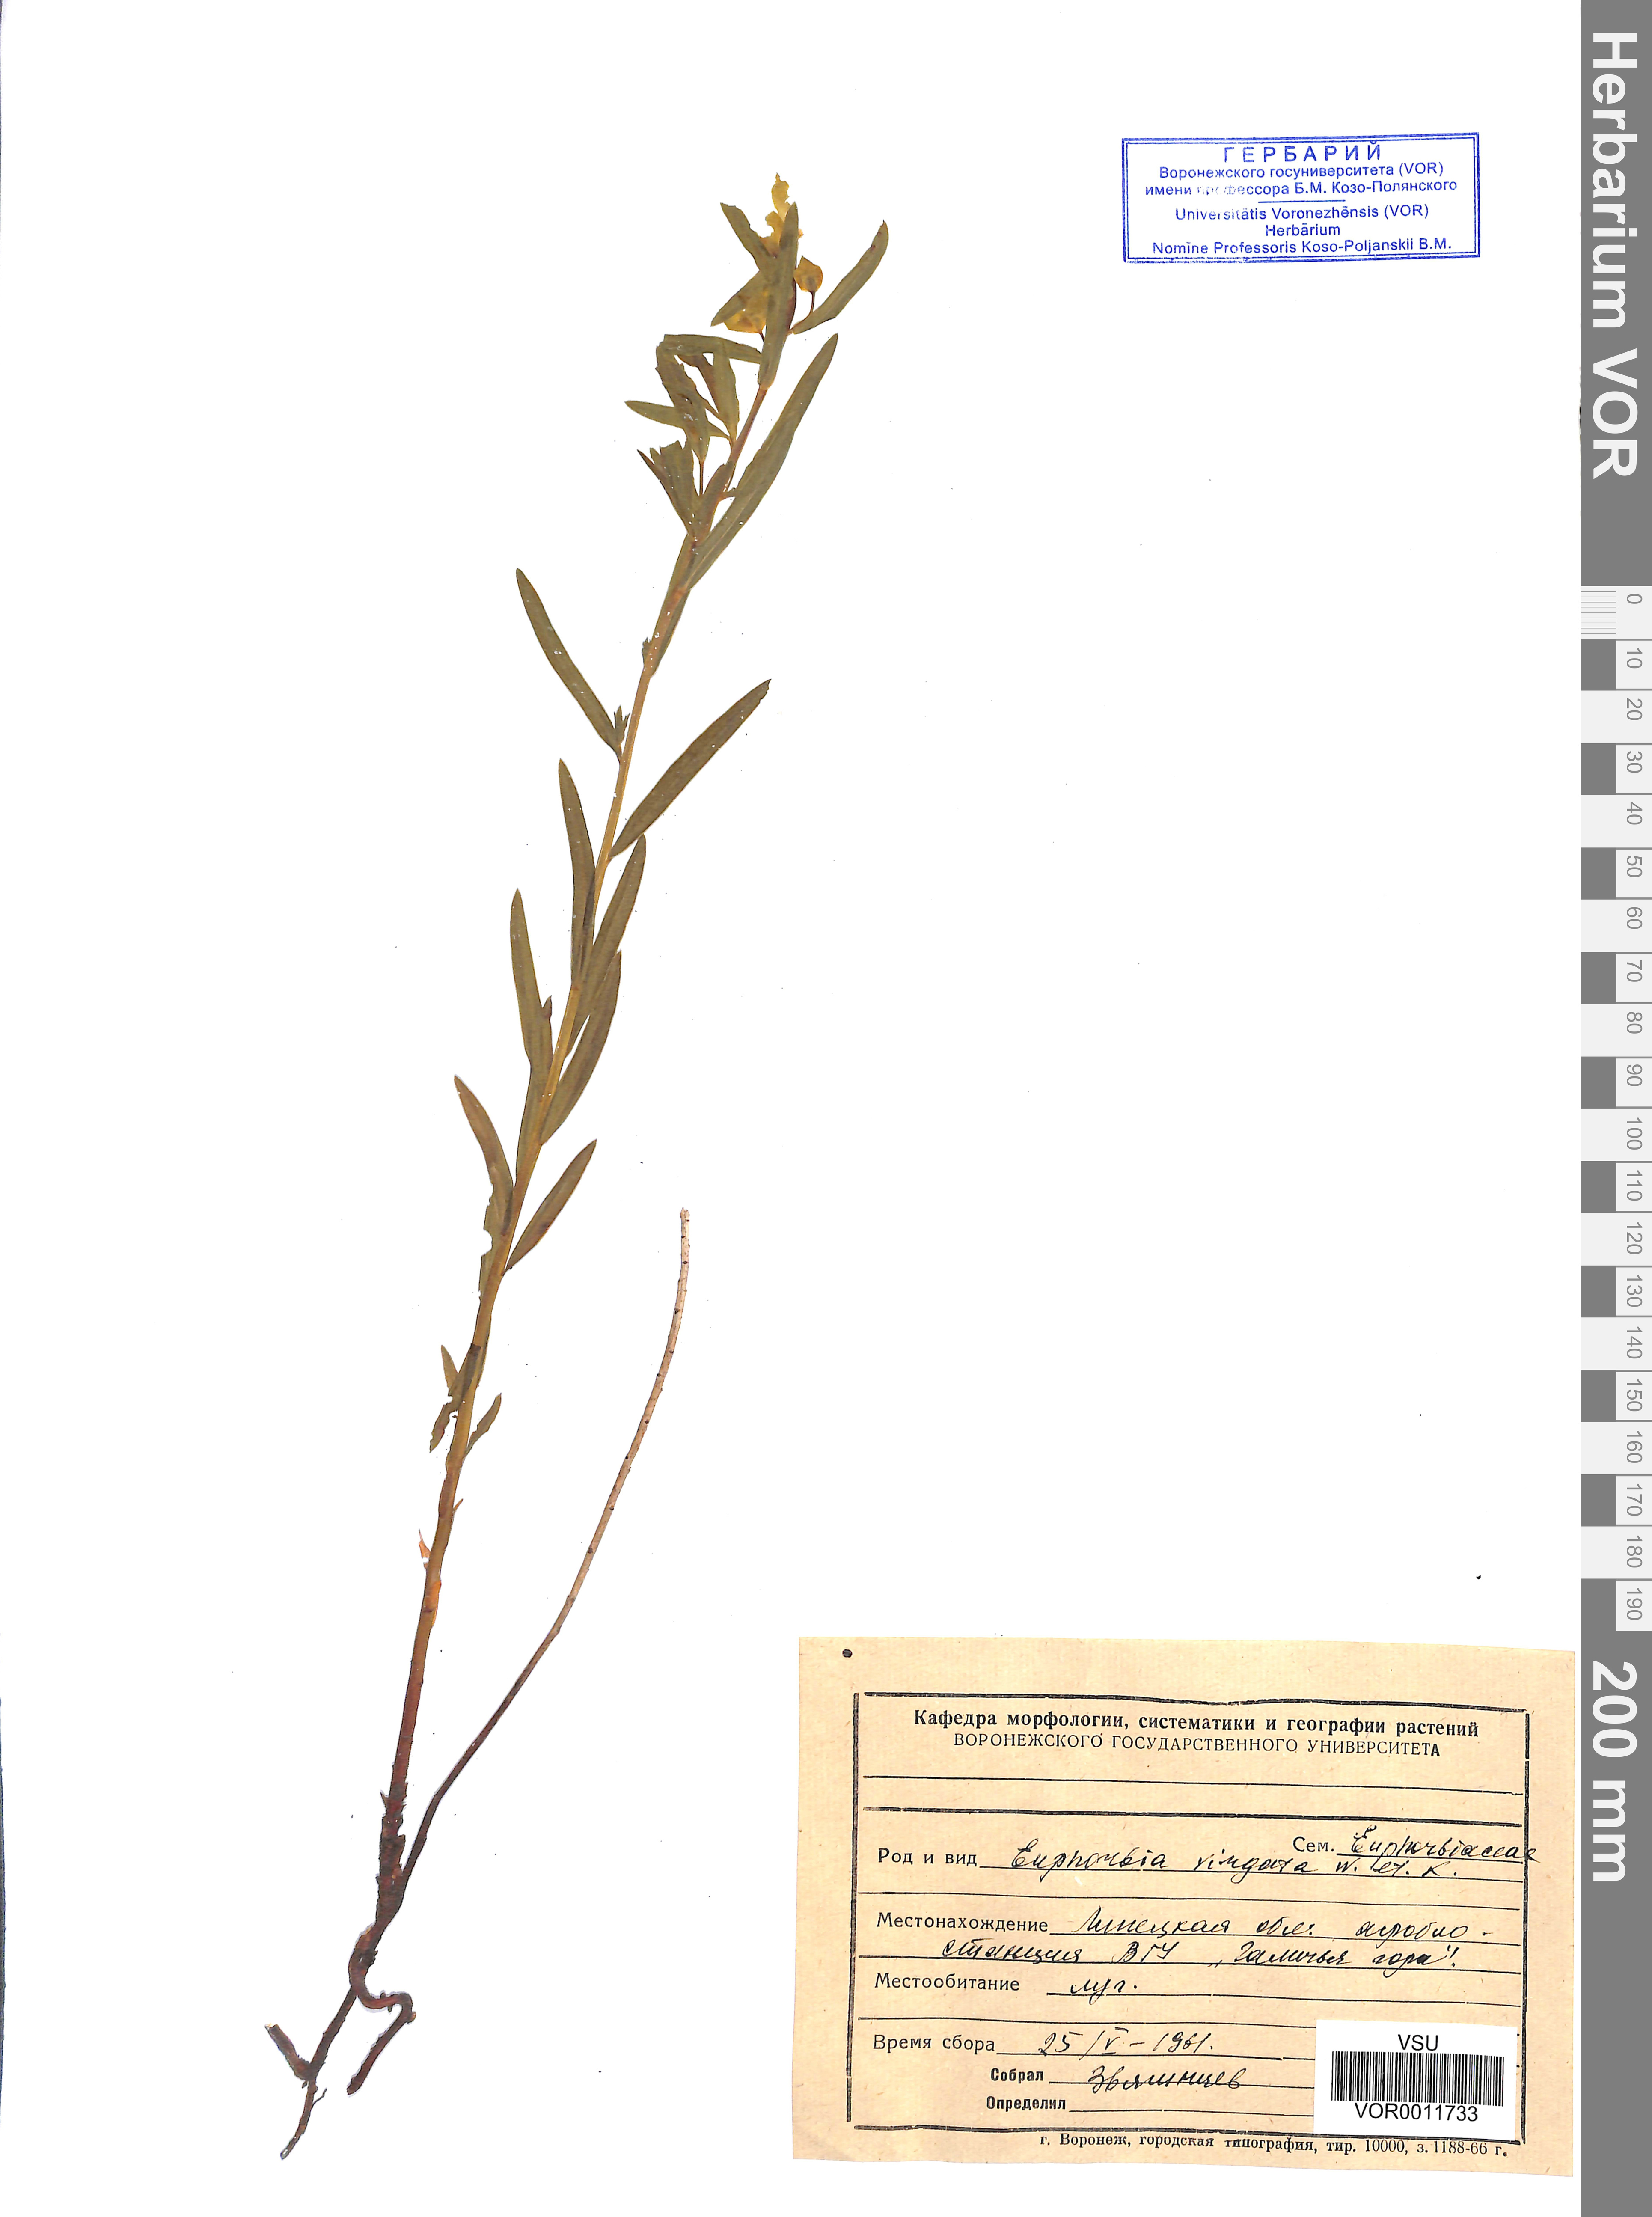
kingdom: Plantae
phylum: Tracheophyta
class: Magnoliopsida
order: Malpighiales
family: Euphorbiaceae
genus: Euphorbia
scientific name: Euphorbia virgata
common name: Leafy spurge
